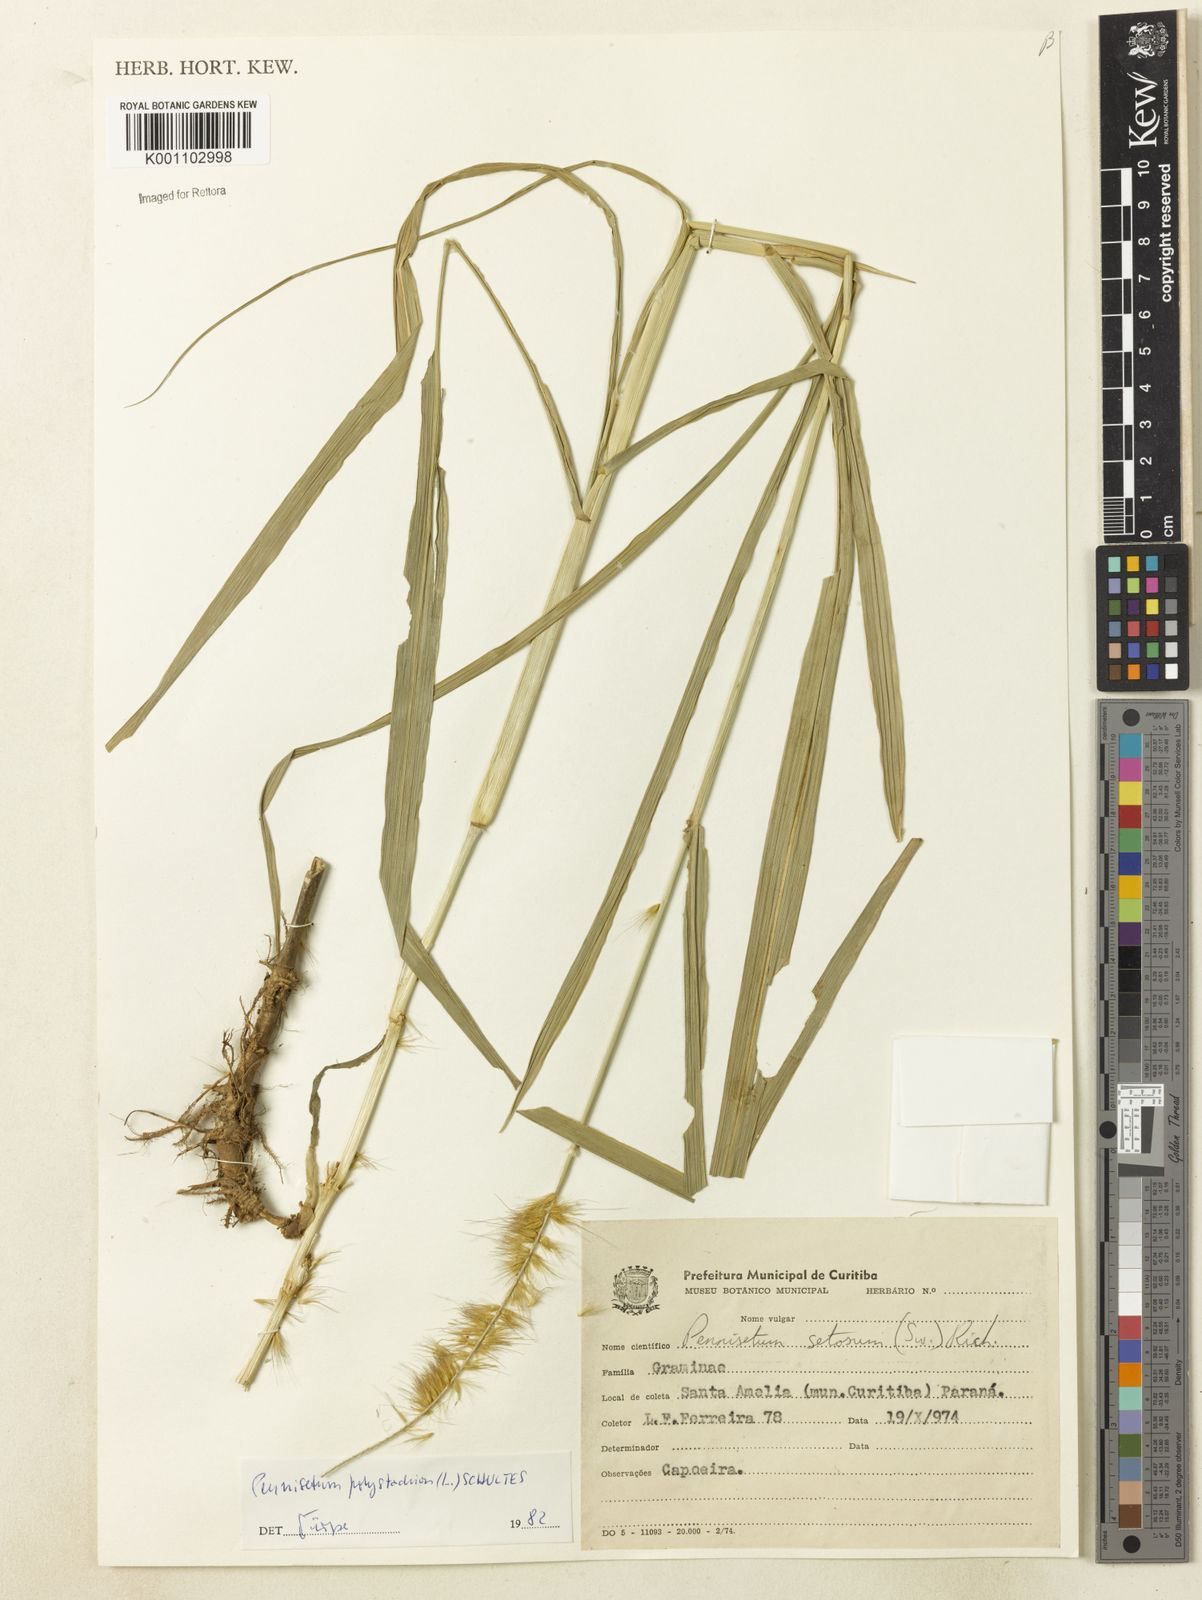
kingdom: Plantae
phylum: Tracheophyta
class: Liliopsida
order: Poales
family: Poaceae
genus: Setaria
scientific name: Setaria parviflora
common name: Knotroot bristle-grass
